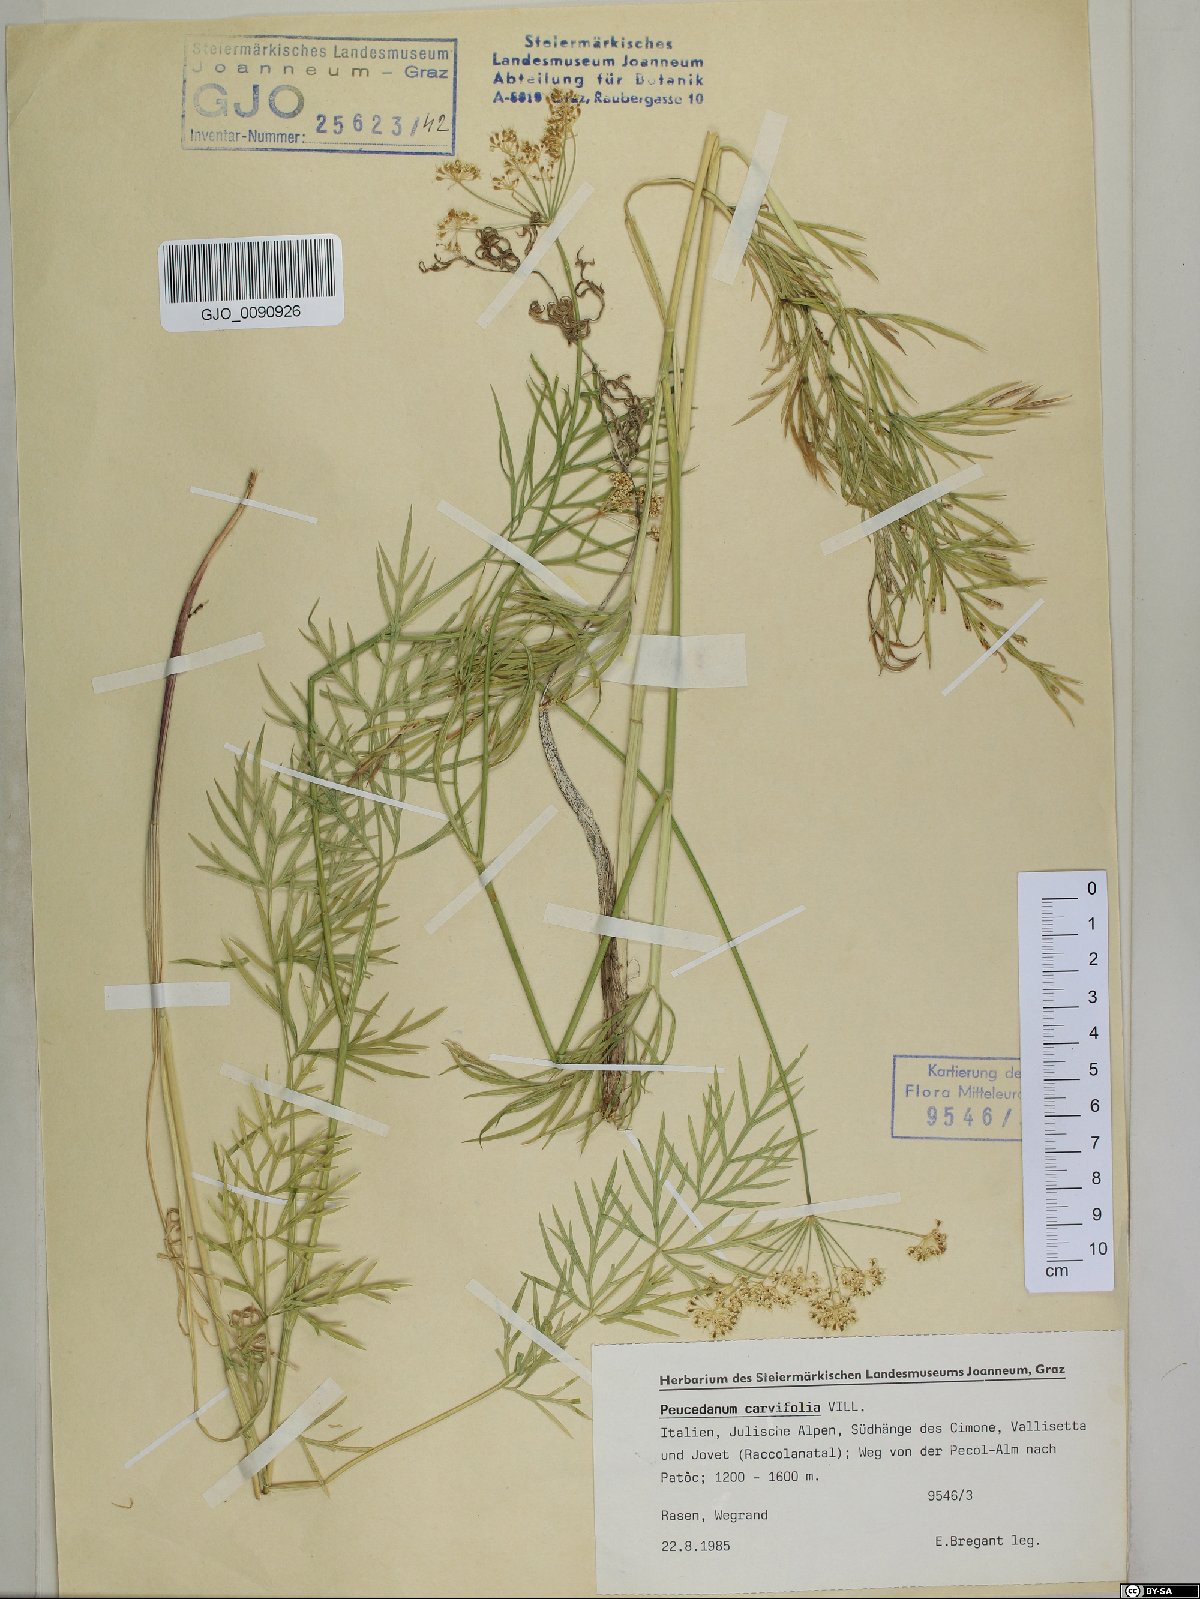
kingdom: Plantae
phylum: Tracheophyta
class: Magnoliopsida
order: Apiales
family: Apiaceae
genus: Dichoropetalum
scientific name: Dichoropetalum carvifolia
